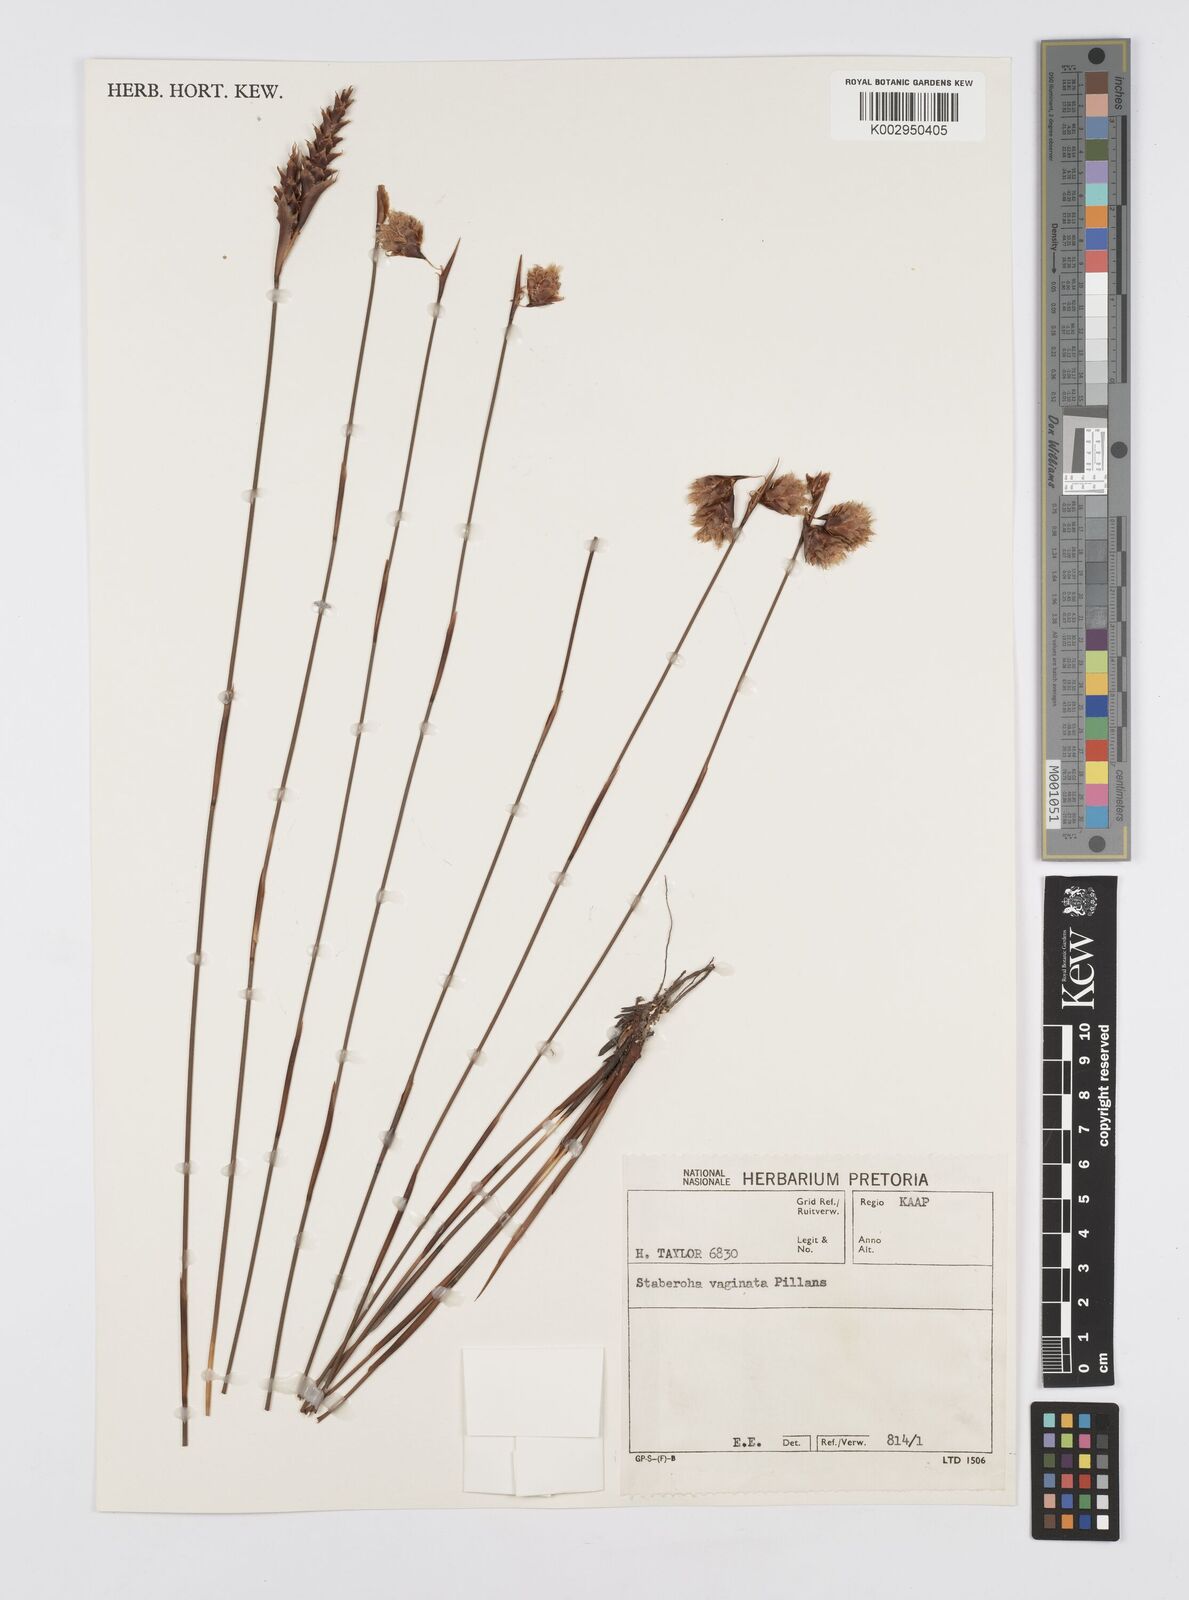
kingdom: Plantae
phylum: Tracheophyta
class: Liliopsida
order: Poales
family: Restionaceae
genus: Staberoha
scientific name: Staberoha vaginata
